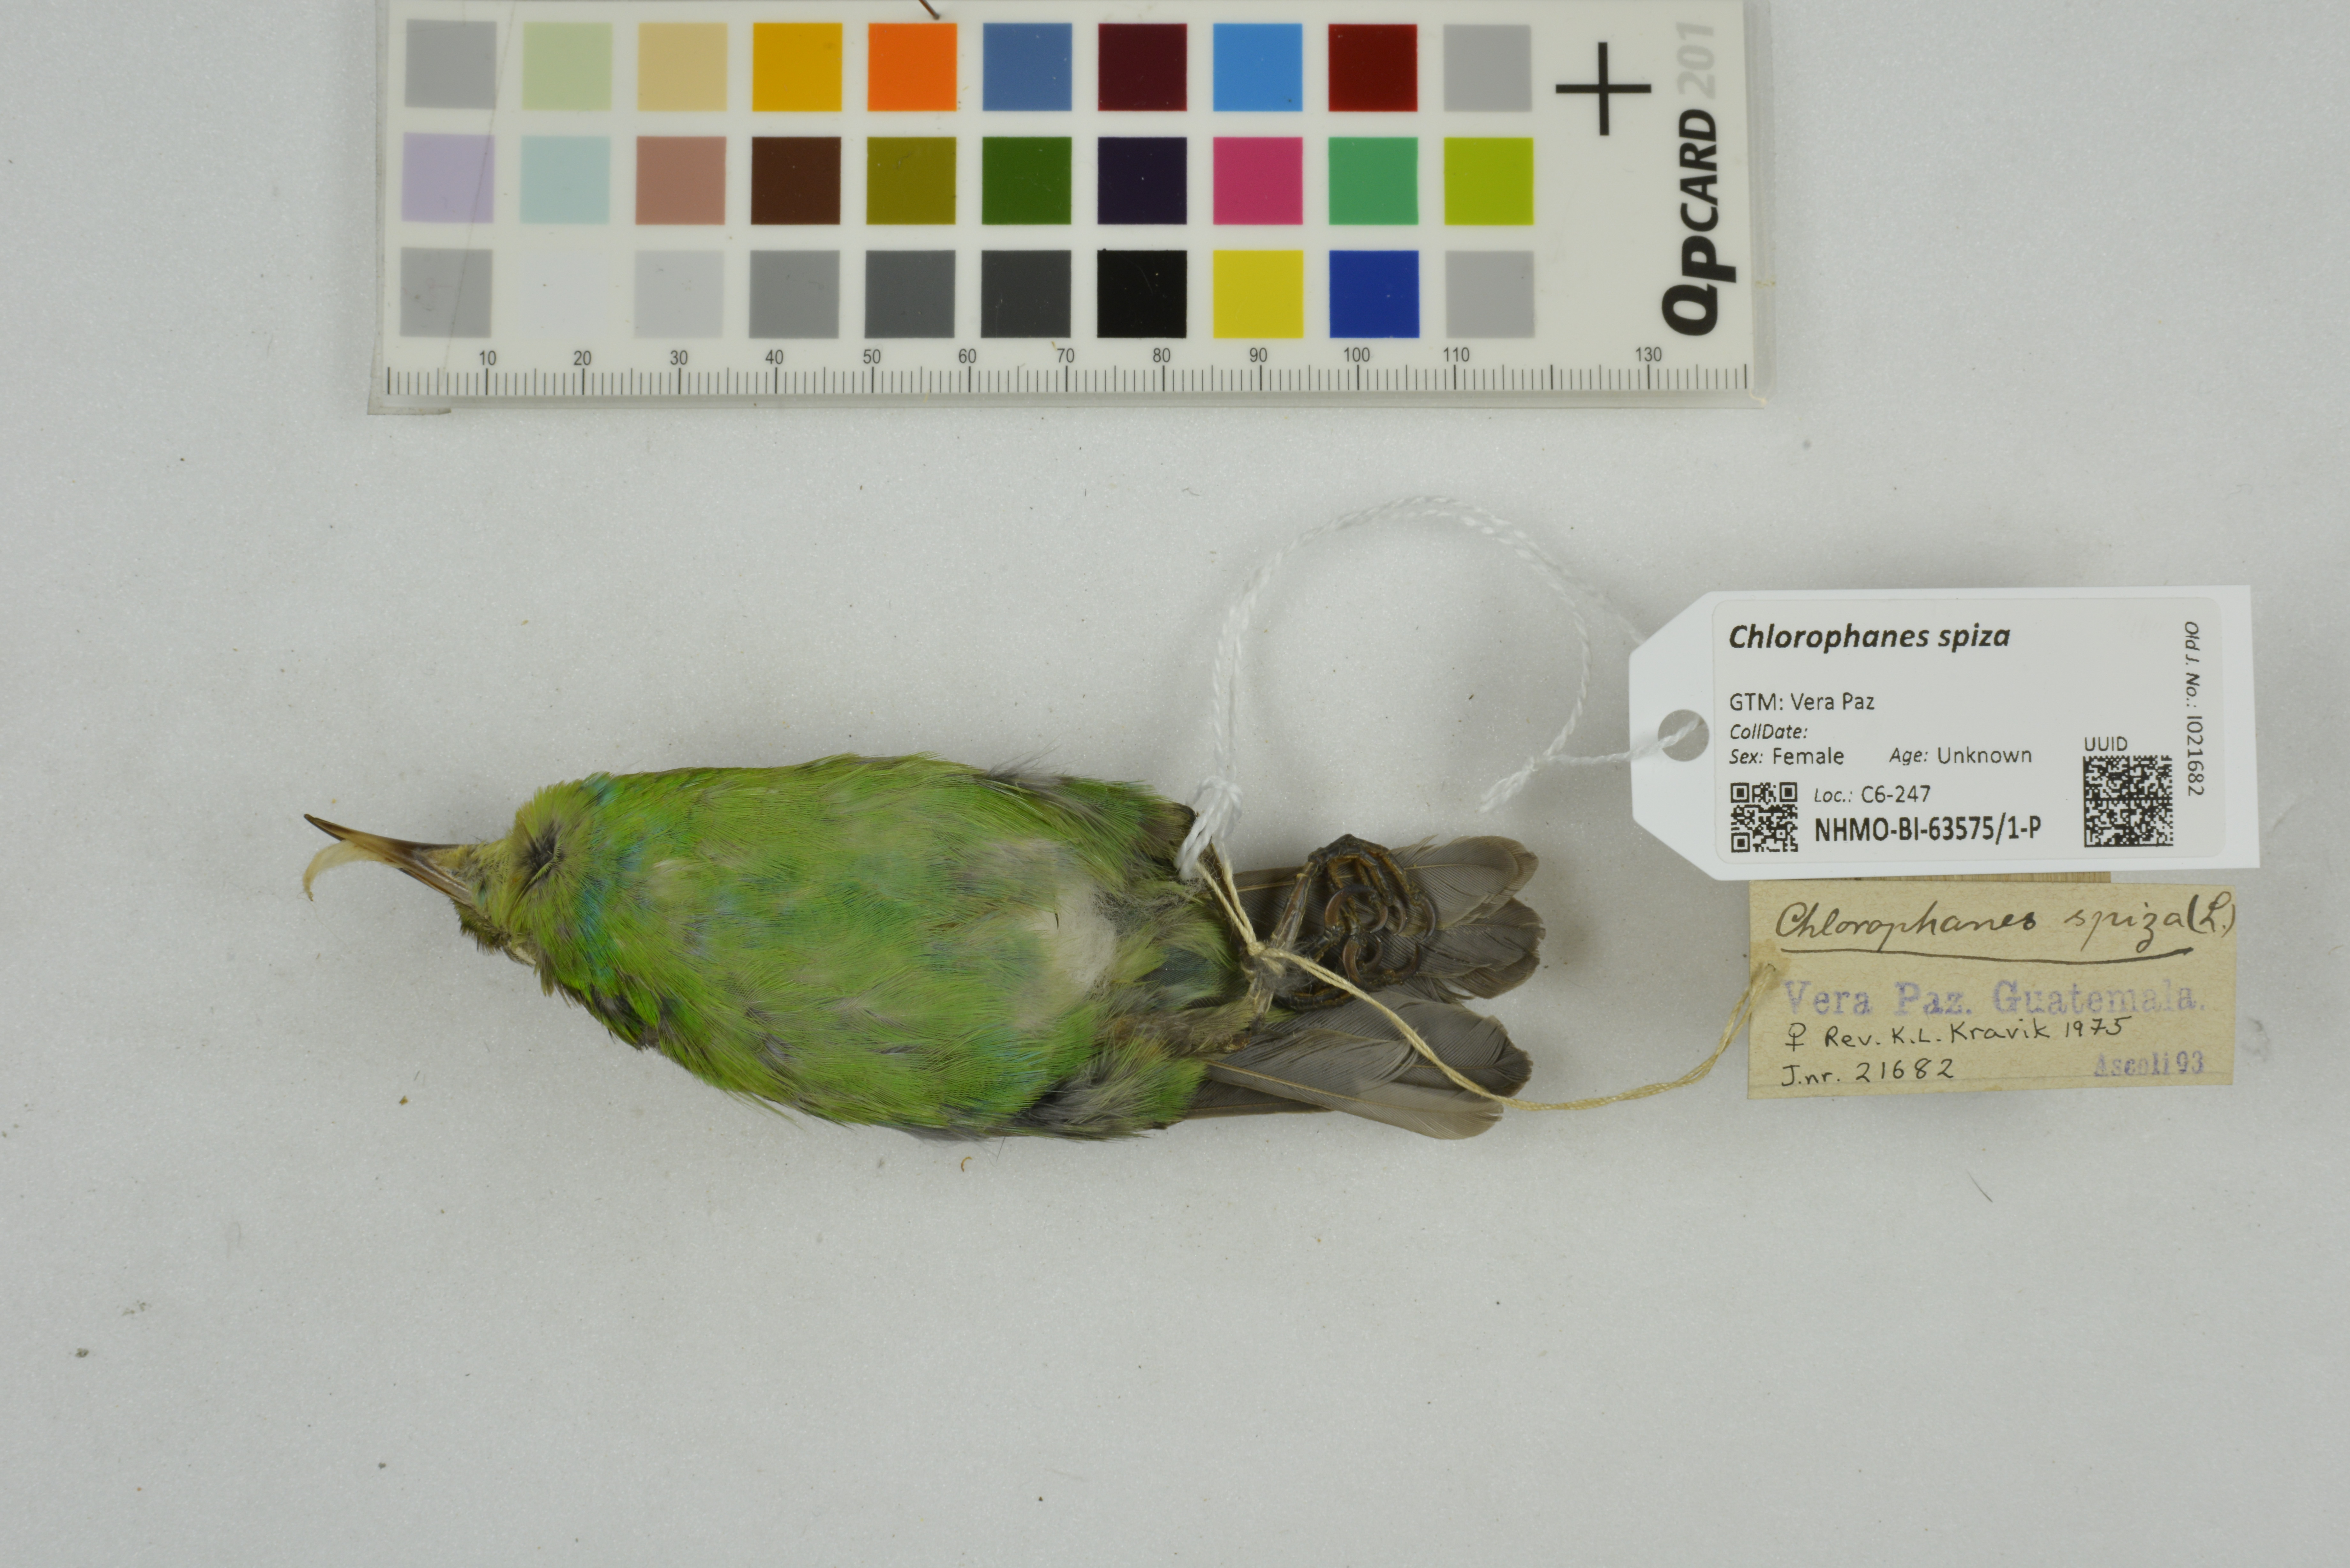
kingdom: Animalia
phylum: Chordata
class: Aves
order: Passeriformes
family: Thraupidae
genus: Chlorophanes
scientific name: Chlorophanes spiza
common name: Green honeycreeper
